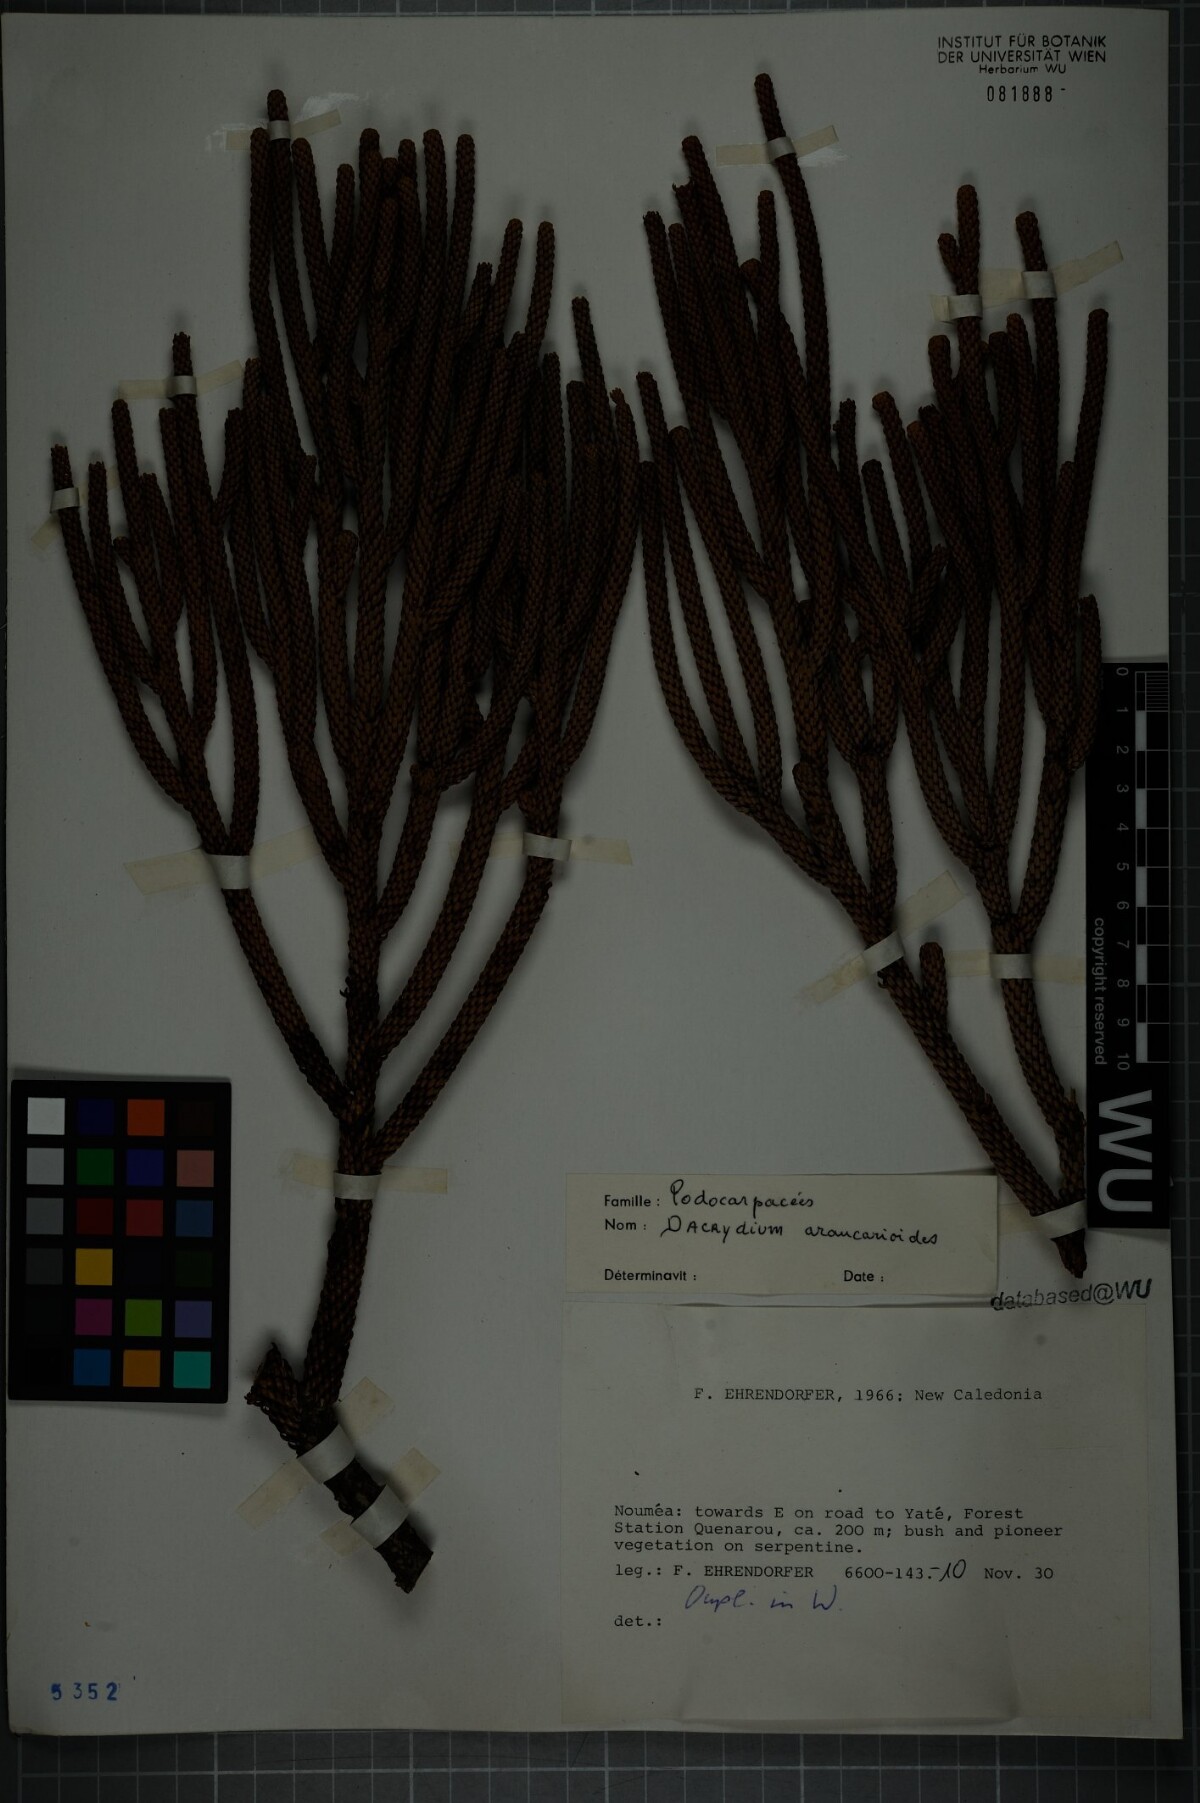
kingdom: Plantae
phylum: Tracheophyta
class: Pinopsida
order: Pinales
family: Podocarpaceae
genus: Dacrydium
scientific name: Dacrydium araucarioides
